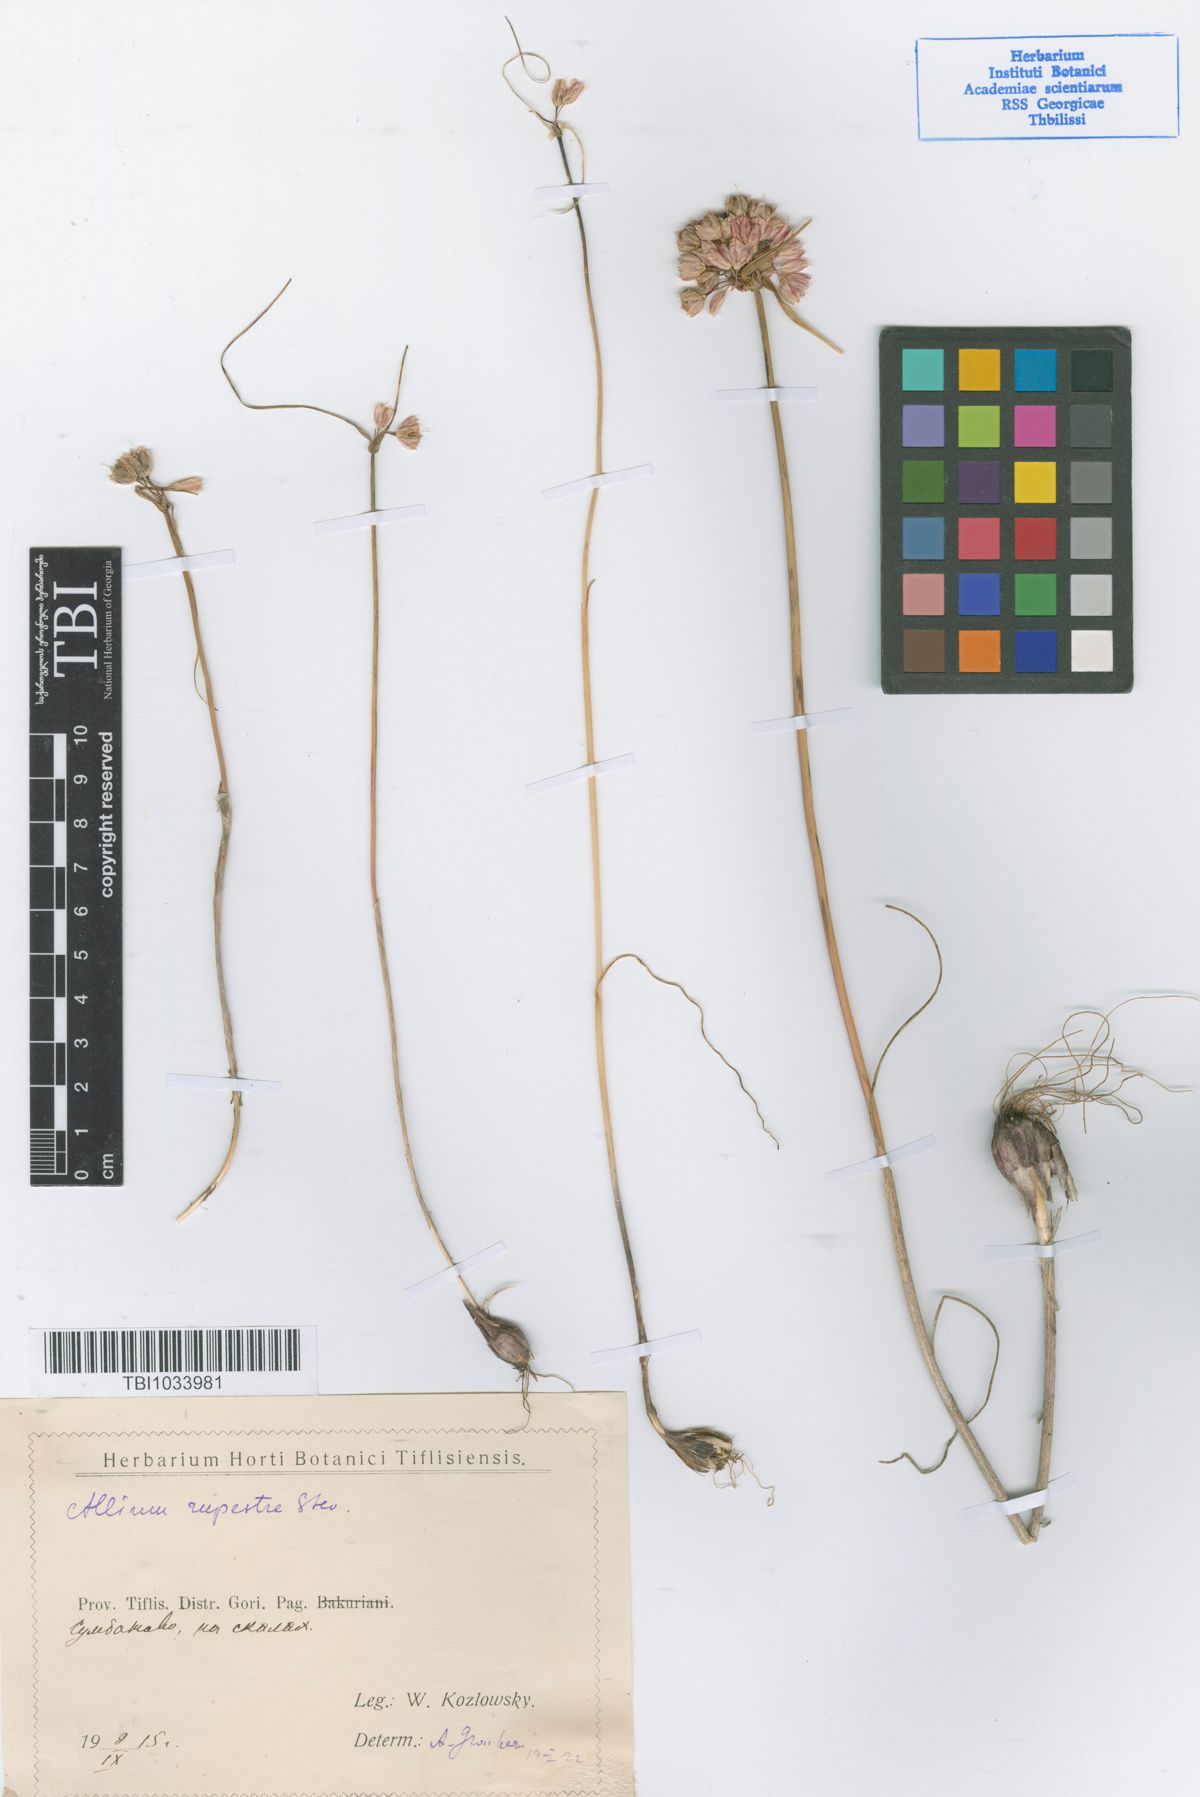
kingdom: Plantae
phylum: Tracheophyta
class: Liliopsida
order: Asparagales
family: Amaryllidaceae
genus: Allium
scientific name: Allium rupestre
